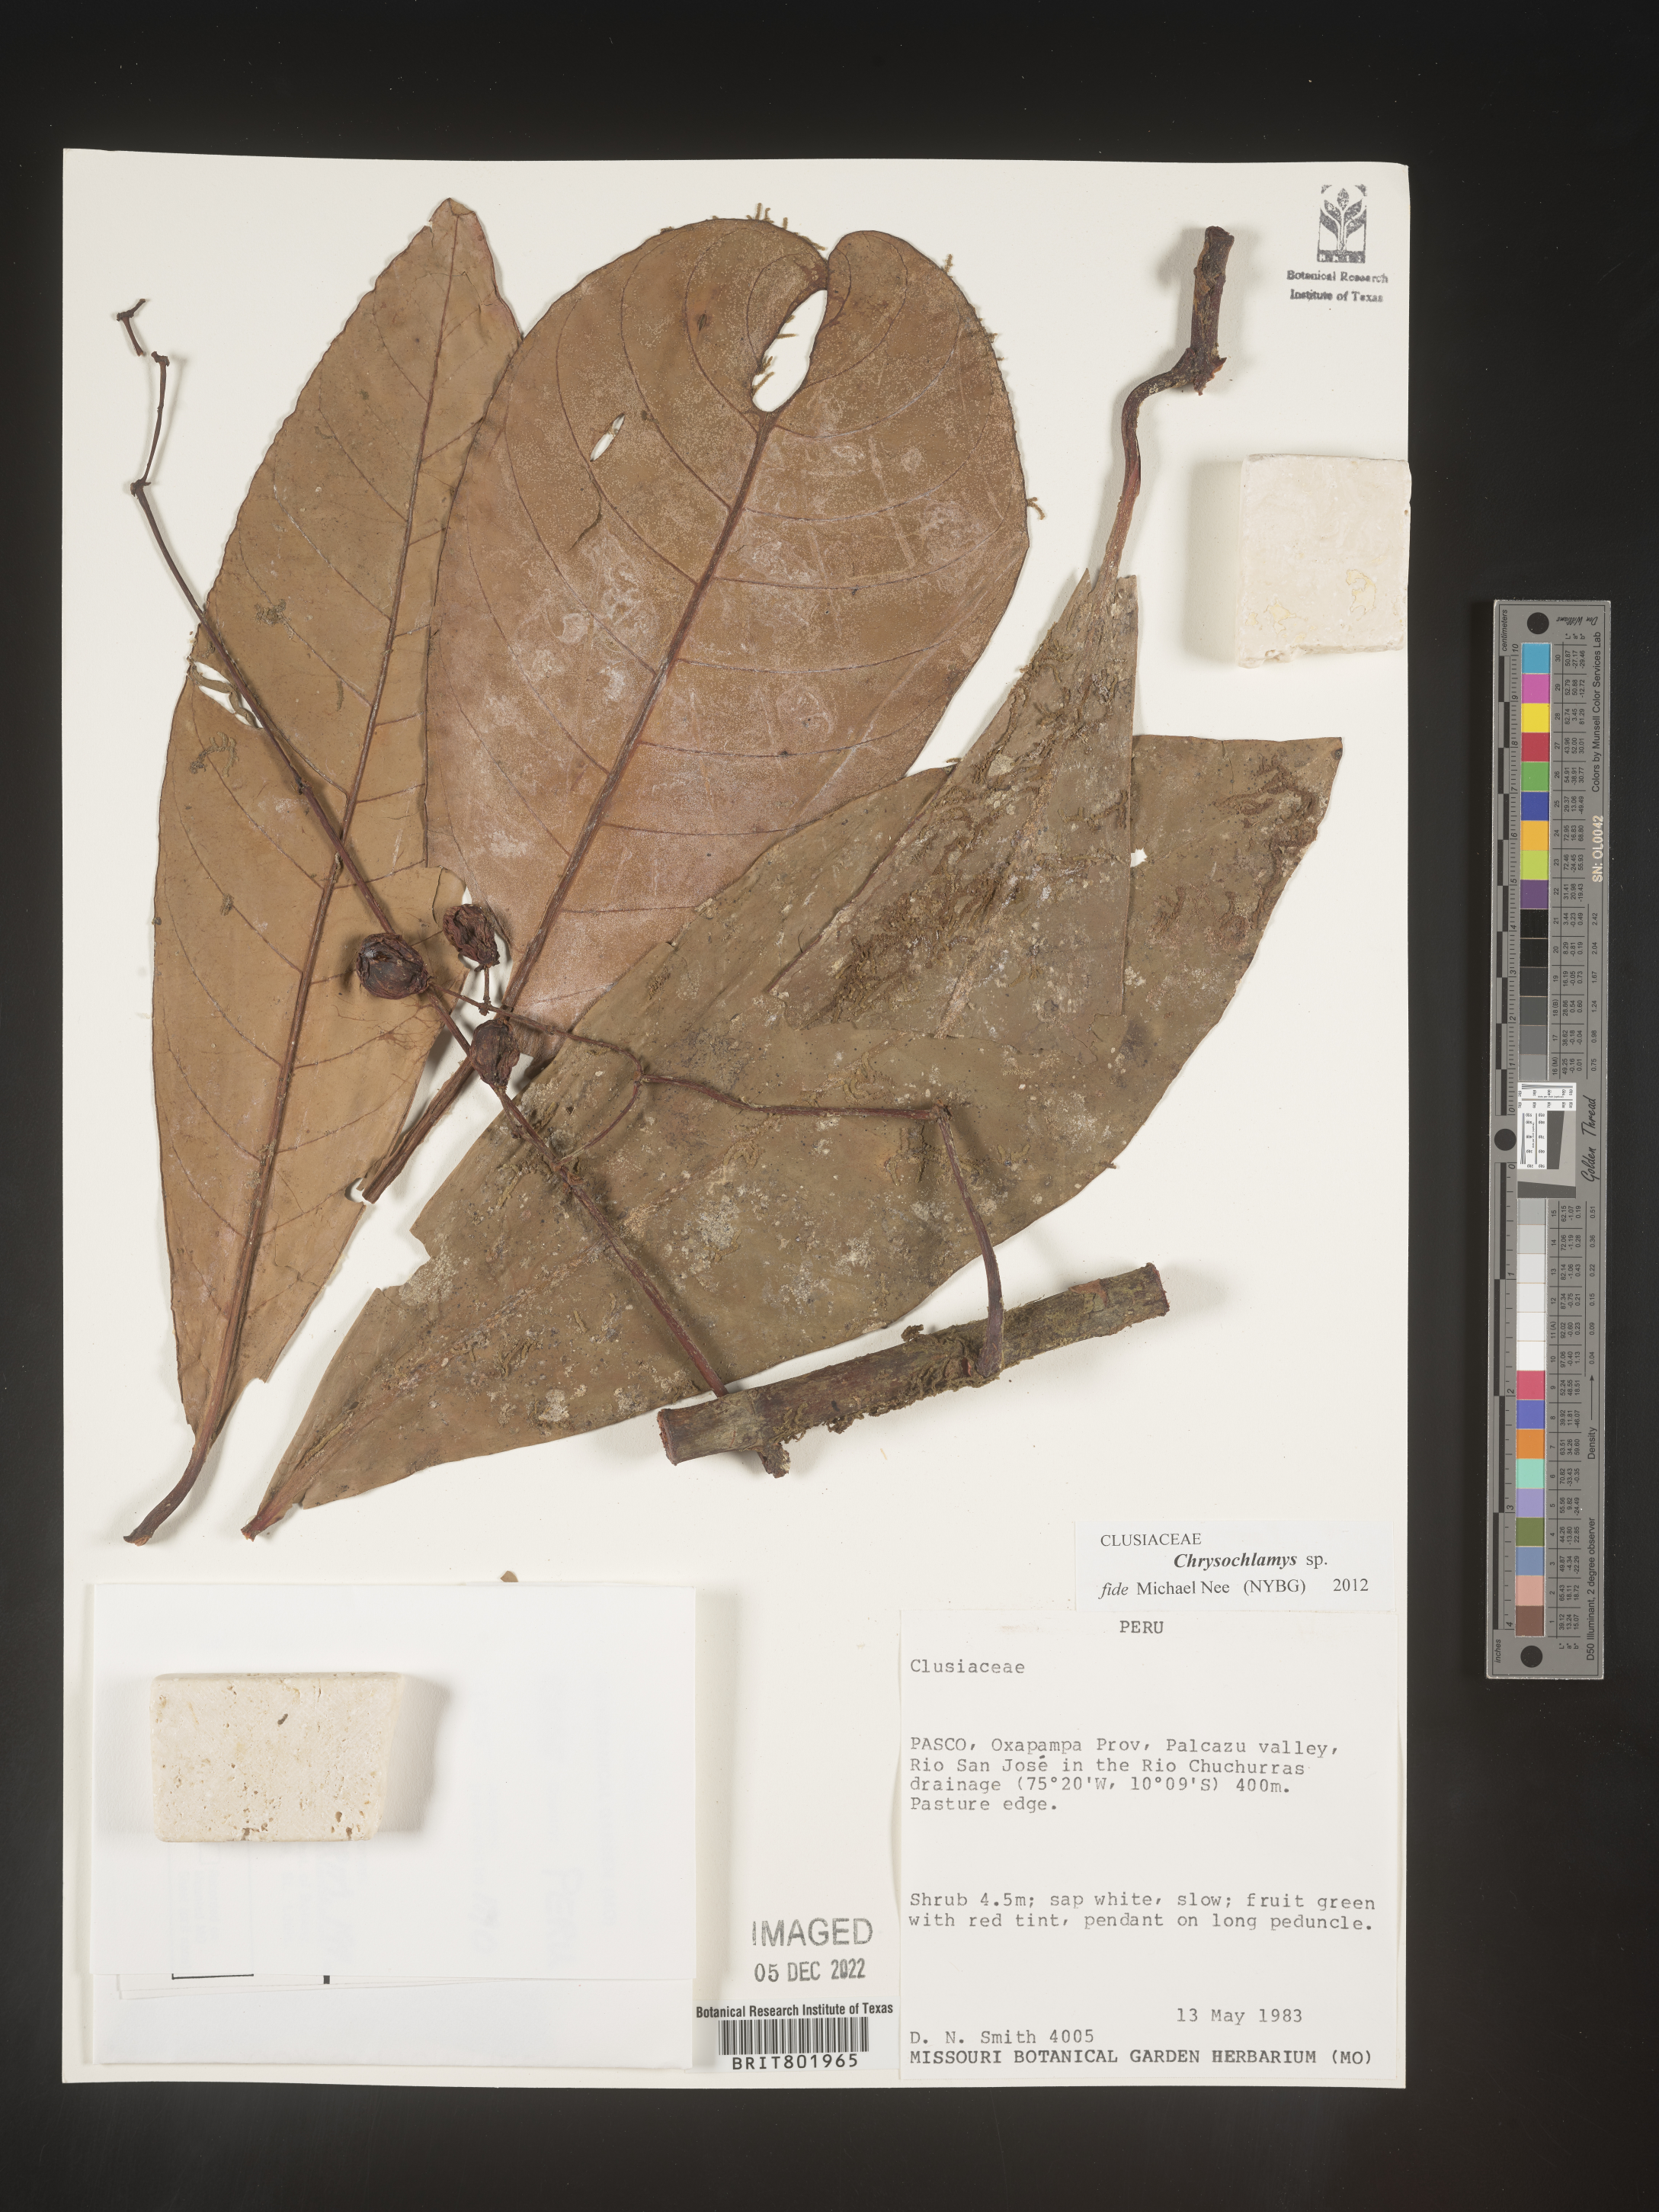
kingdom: Plantae
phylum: Tracheophyta
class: Magnoliopsida
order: Malpighiales
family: Clusiaceae
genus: Chrysochlamys
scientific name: Chrysochlamys
